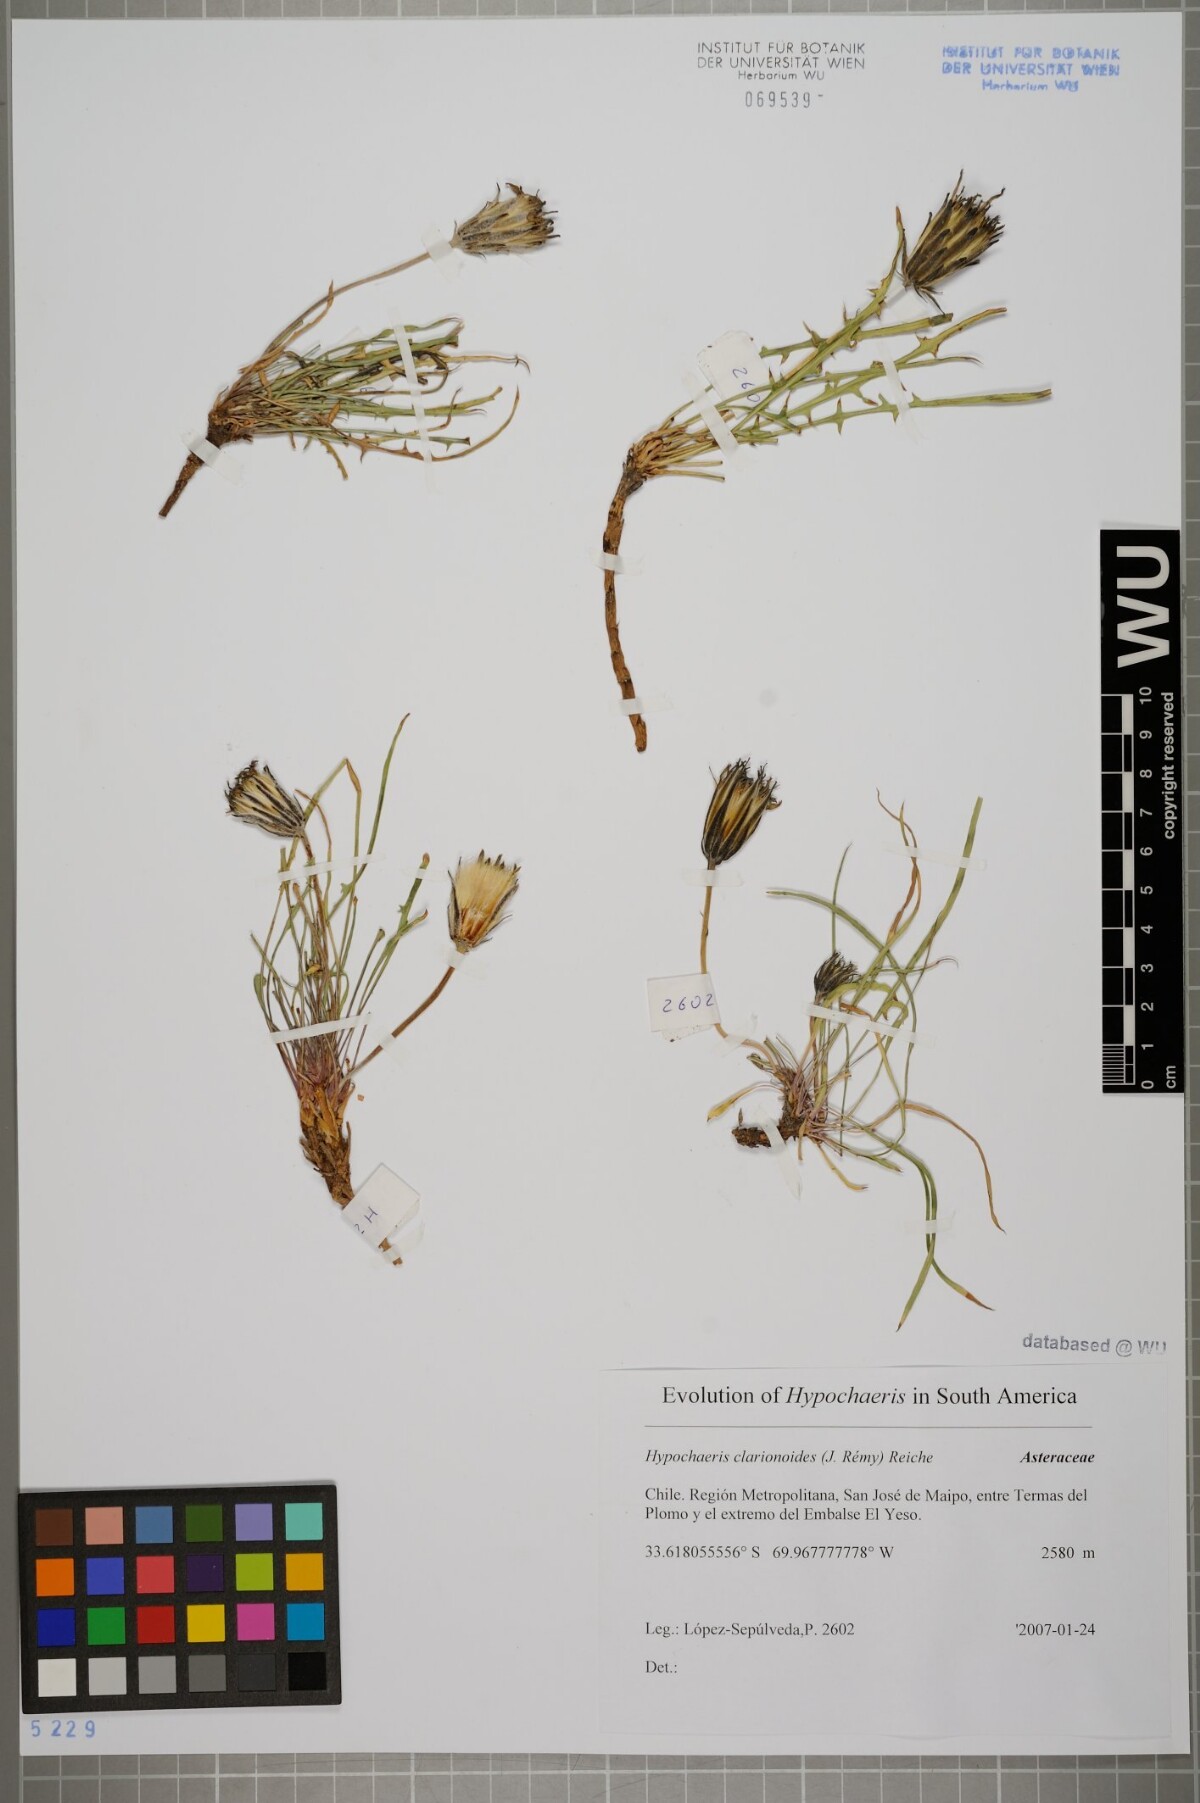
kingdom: Plantae
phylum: Tracheophyta
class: Magnoliopsida
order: Asterales
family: Asteraceae
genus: Hypochaeris
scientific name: Hypochaeris clarionoides
